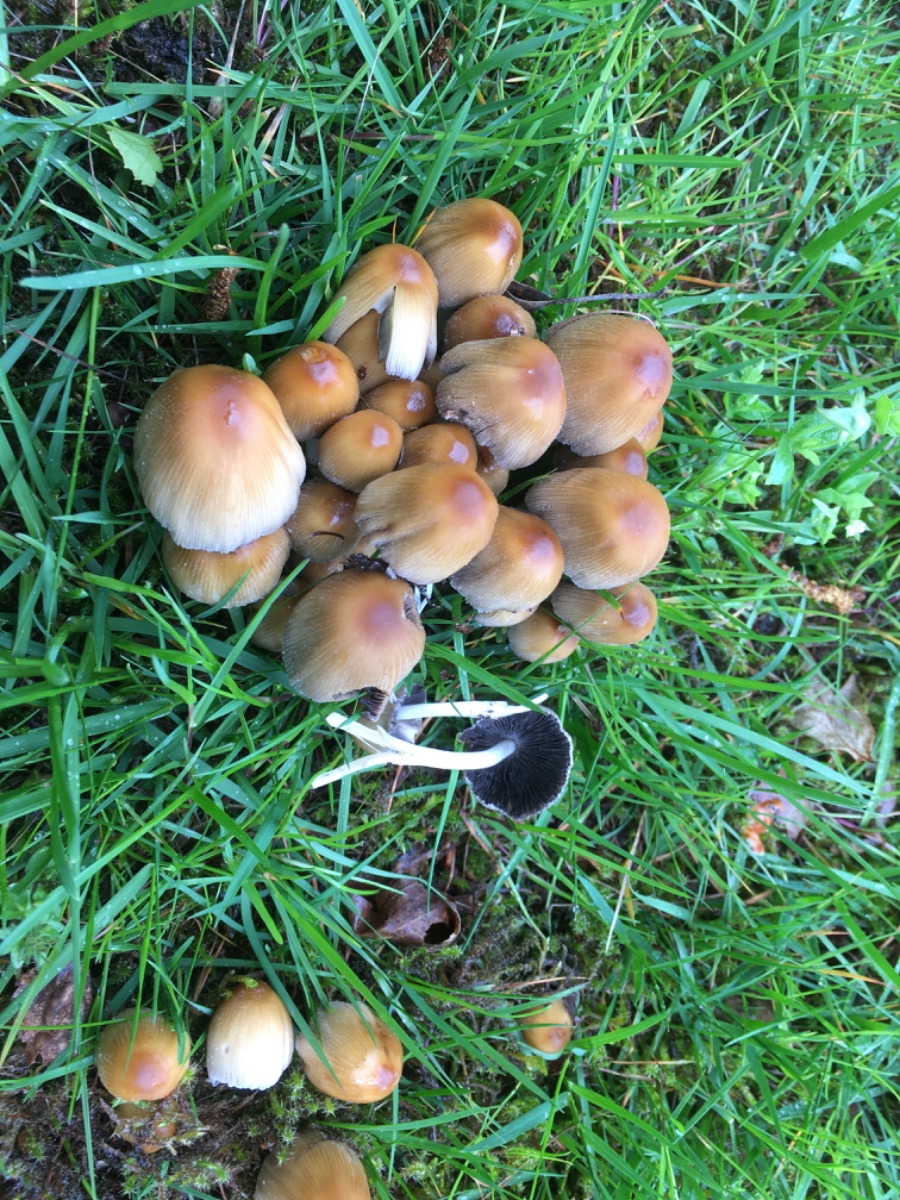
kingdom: Fungi
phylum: Basidiomycota
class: Agaricomycetes
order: Agaricales
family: Psathyrellaceae
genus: Coprinellus
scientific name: Coprinellus micaceus
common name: glimmer-blækhat
